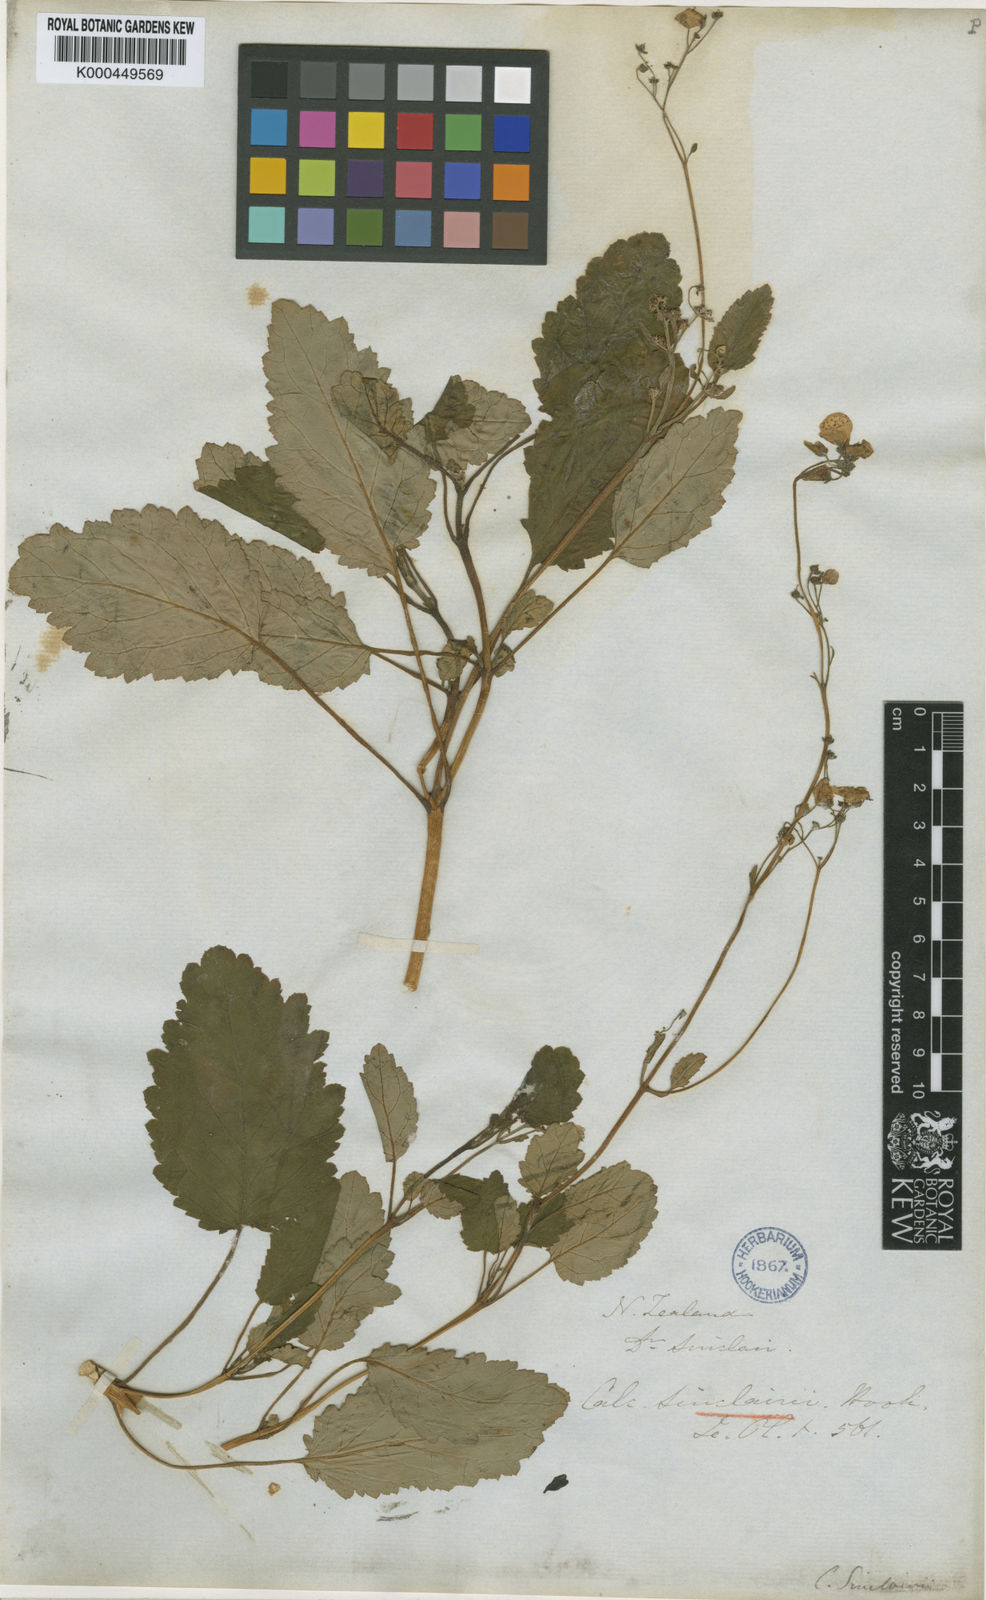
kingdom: Plantae
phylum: Tracheophyta
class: Magnoliopsida
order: Lamiales
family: Calceolariaceae
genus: Jovellana
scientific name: Jovellana sinclairii
